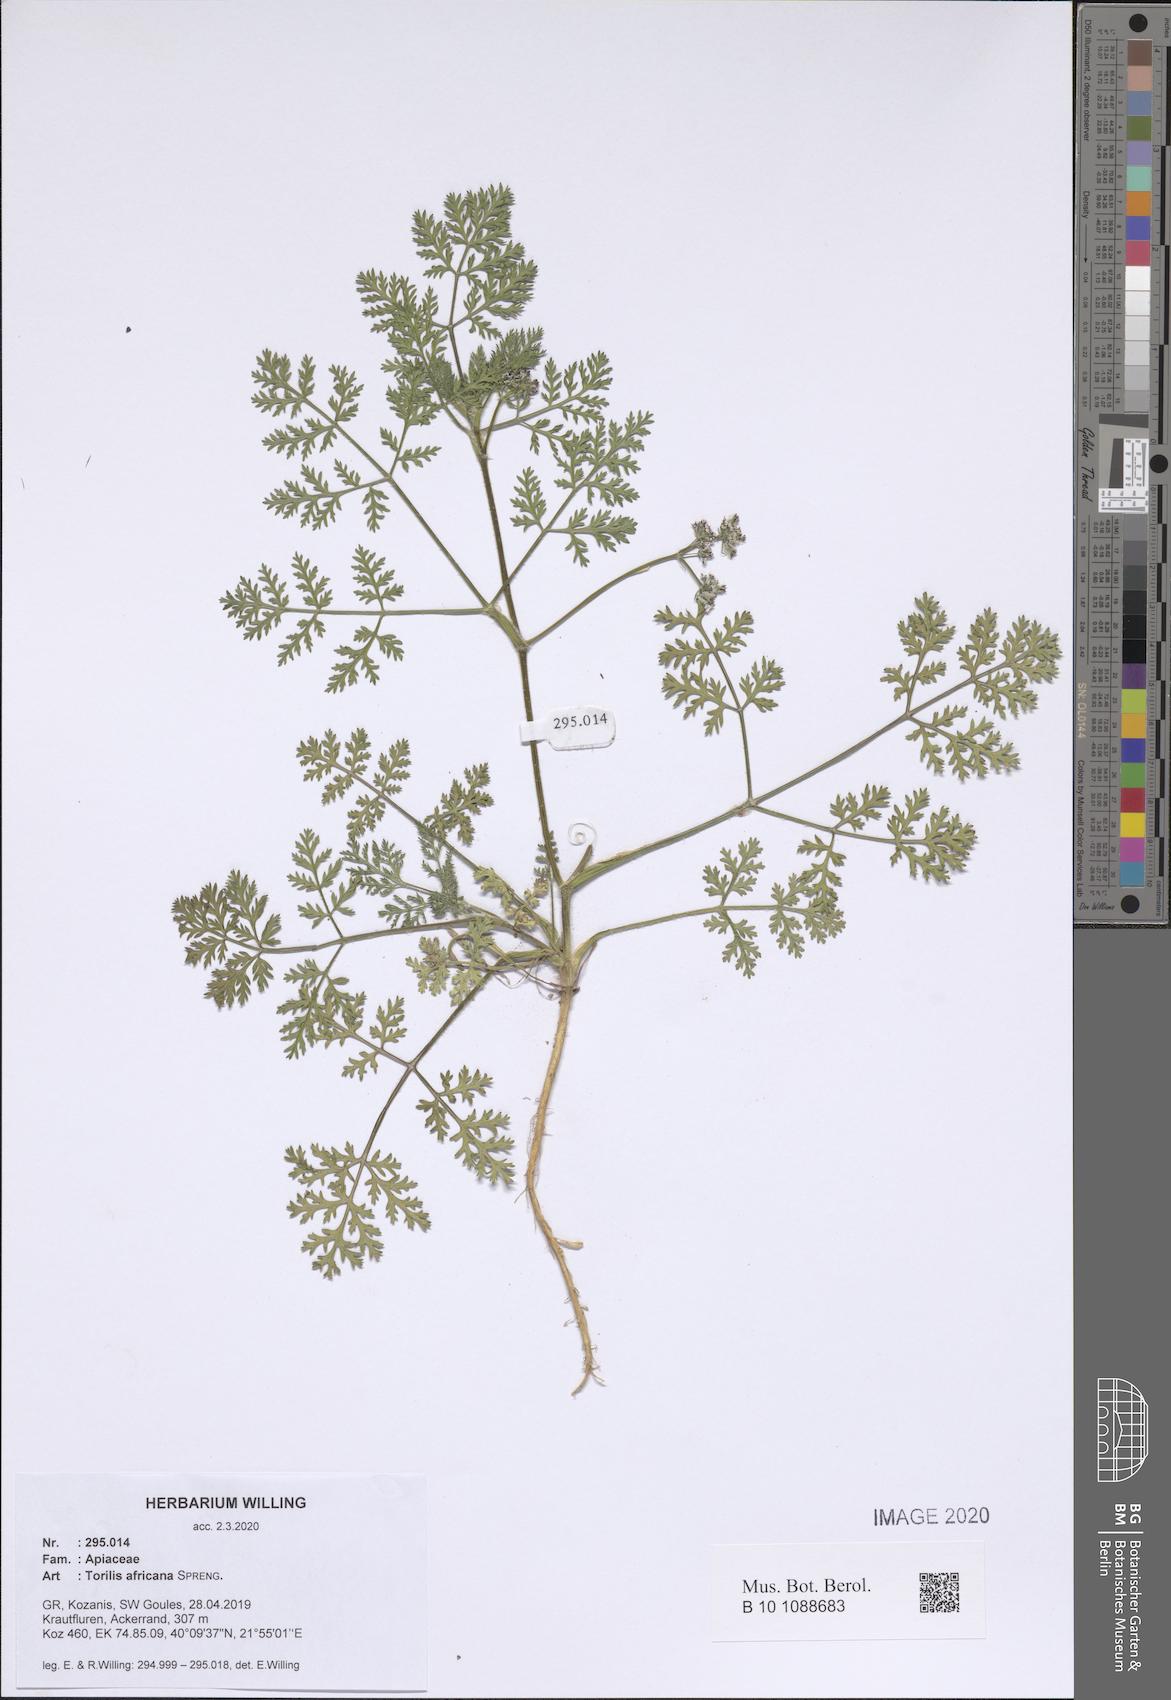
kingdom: Plantae
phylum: Tracheophyta
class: Magnoliopsida
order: Apiales
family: Apiaceae
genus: Torilis
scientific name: Torilis africana
